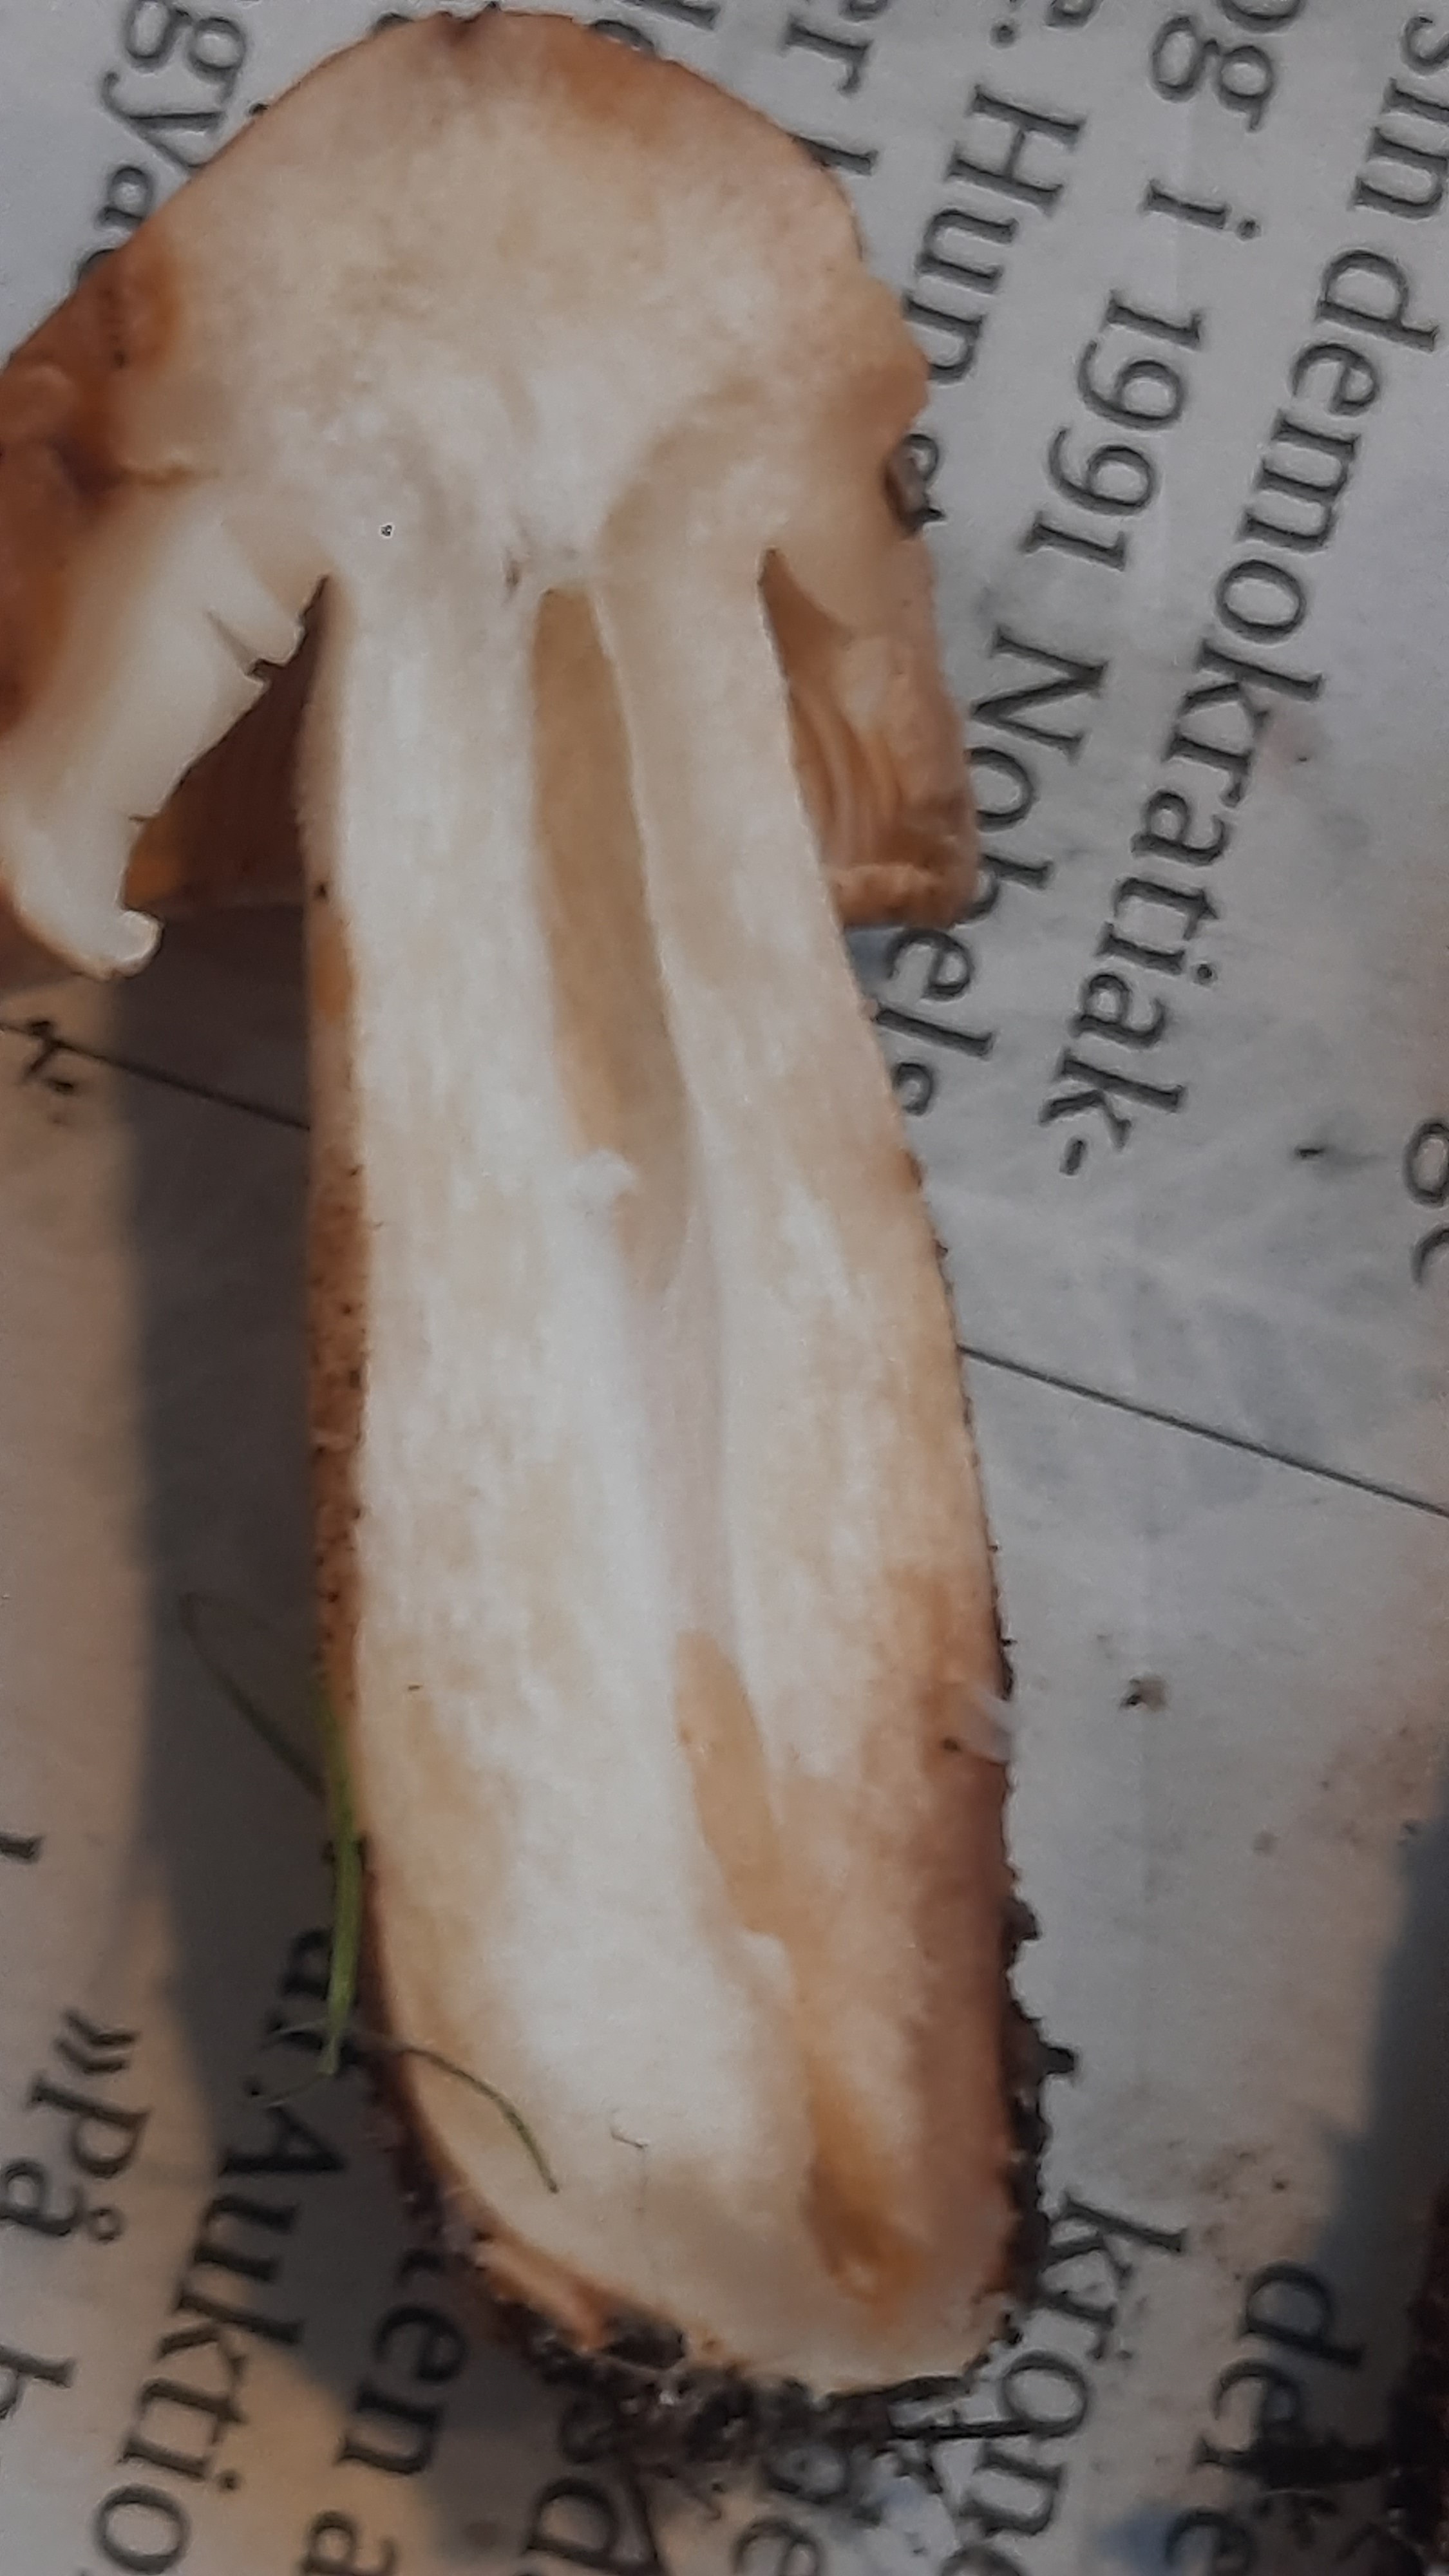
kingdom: Fungi
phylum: Basidiomycota
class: Agaricomycetes
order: Agaricales
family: Tricholomataceae
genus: Tricholoma
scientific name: Tricholoma psammopus
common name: grynstokket ridderhat
